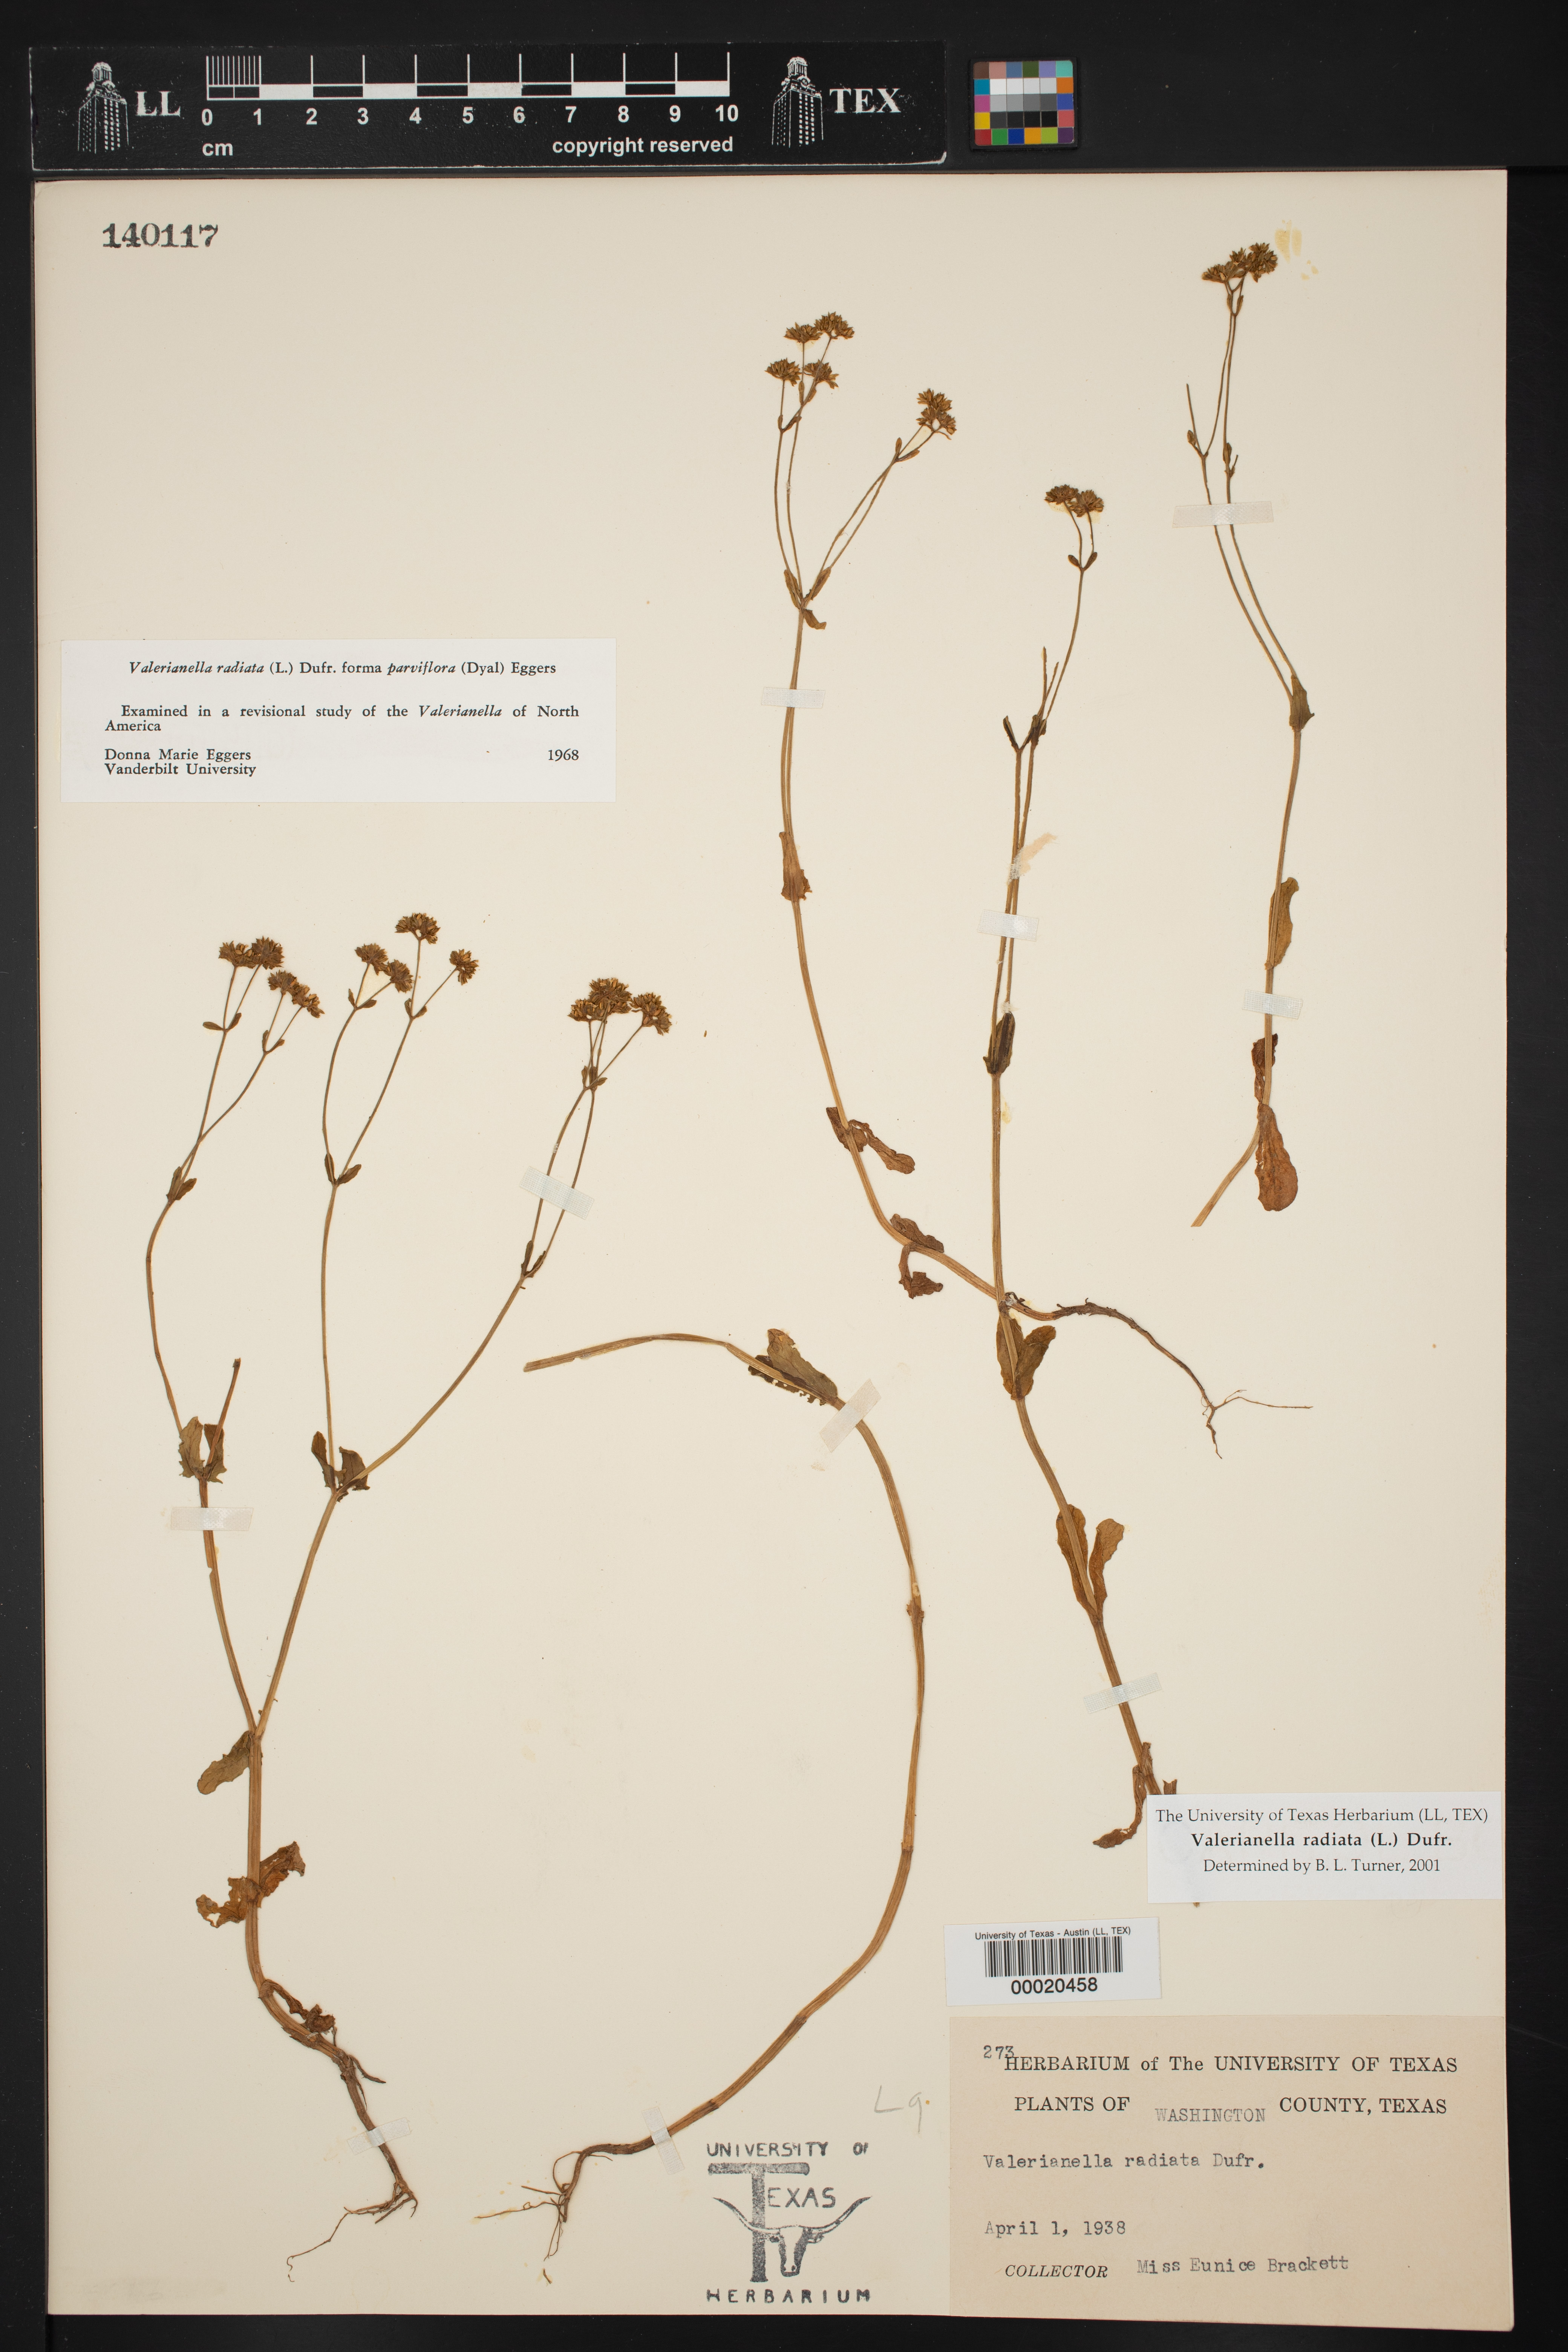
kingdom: Plantae
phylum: Tracheophyta
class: Magnoliopsida
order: Dipsacales
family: Caprifoliaceae
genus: Valerianella
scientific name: Valerianella radiata
